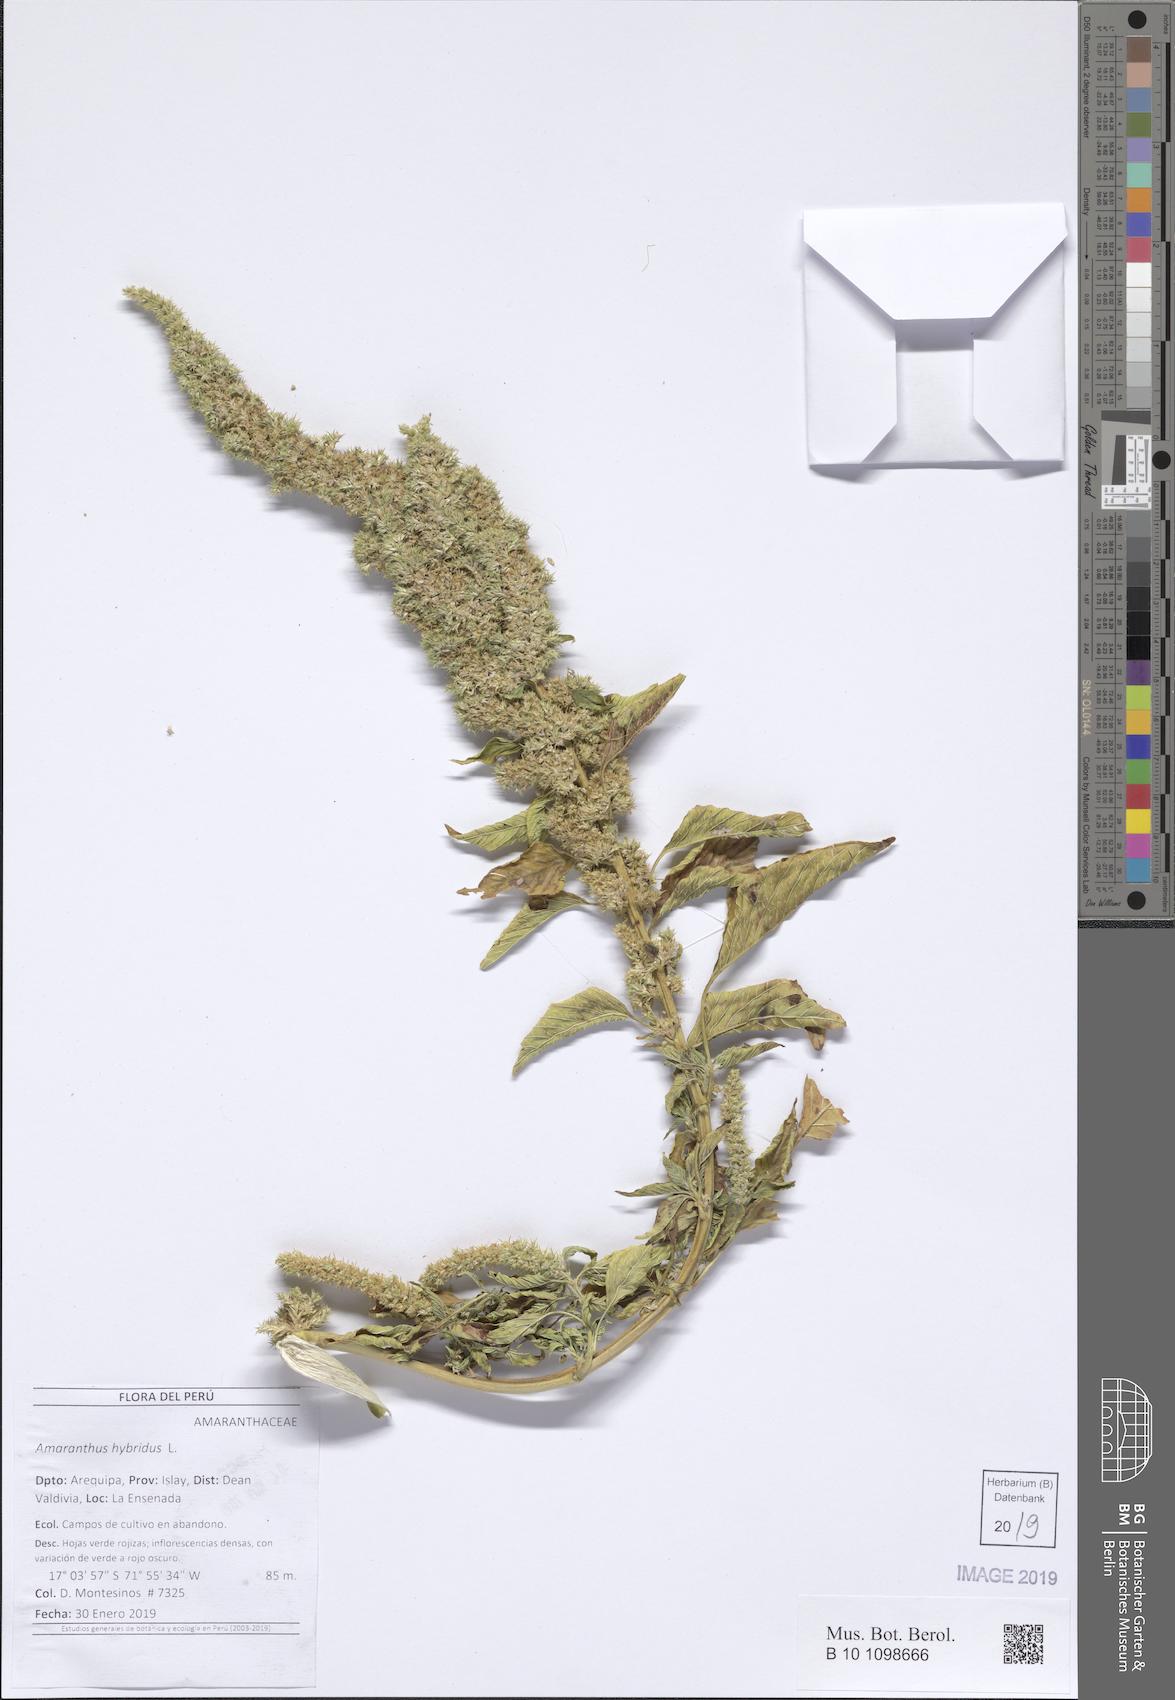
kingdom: Plantae
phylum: Tracheophyta
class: Magnoliopsida
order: Caryophyllales
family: Amaranthaceae
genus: Amaranthus
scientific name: Amaranthus hybridus
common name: Green amaranth
